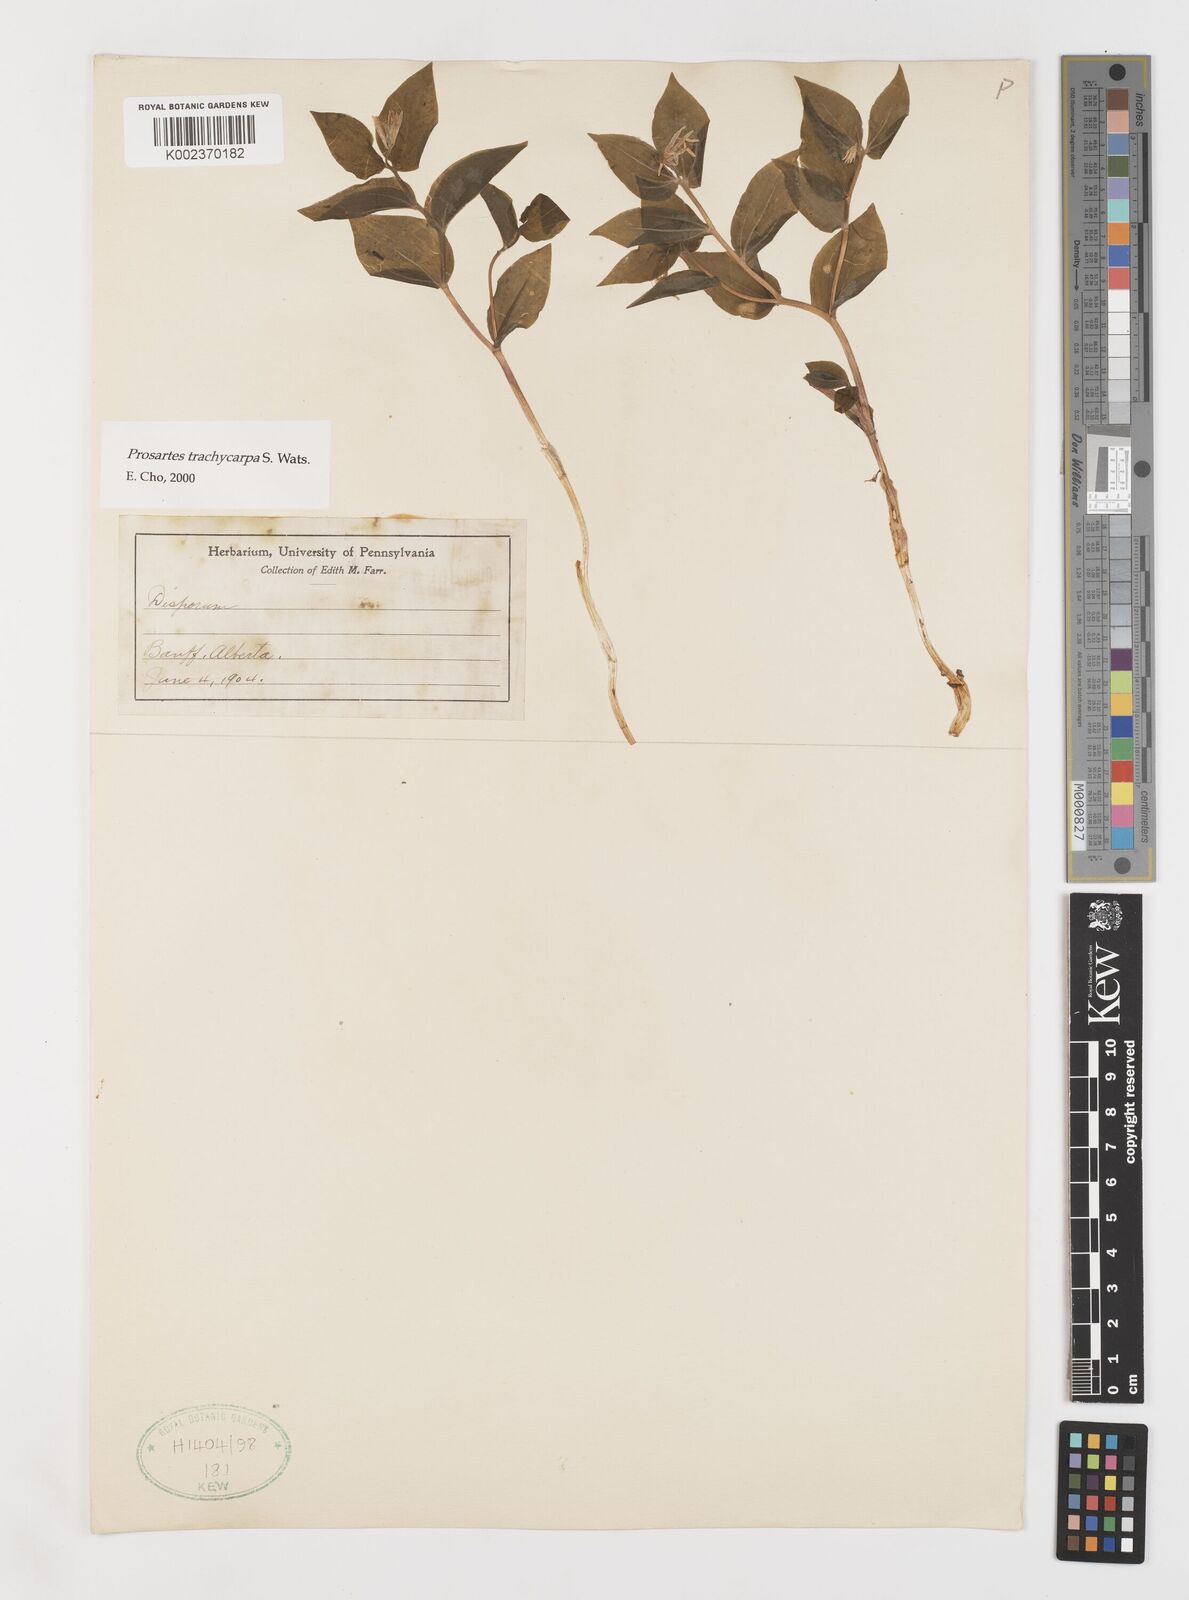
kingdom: Plantae
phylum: Tracheophyta
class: Liliopsida
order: Liliales
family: Liliaceae
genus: Prosartes
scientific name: Prosartes trachycarpa
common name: Rough-fruit fairy-bells
